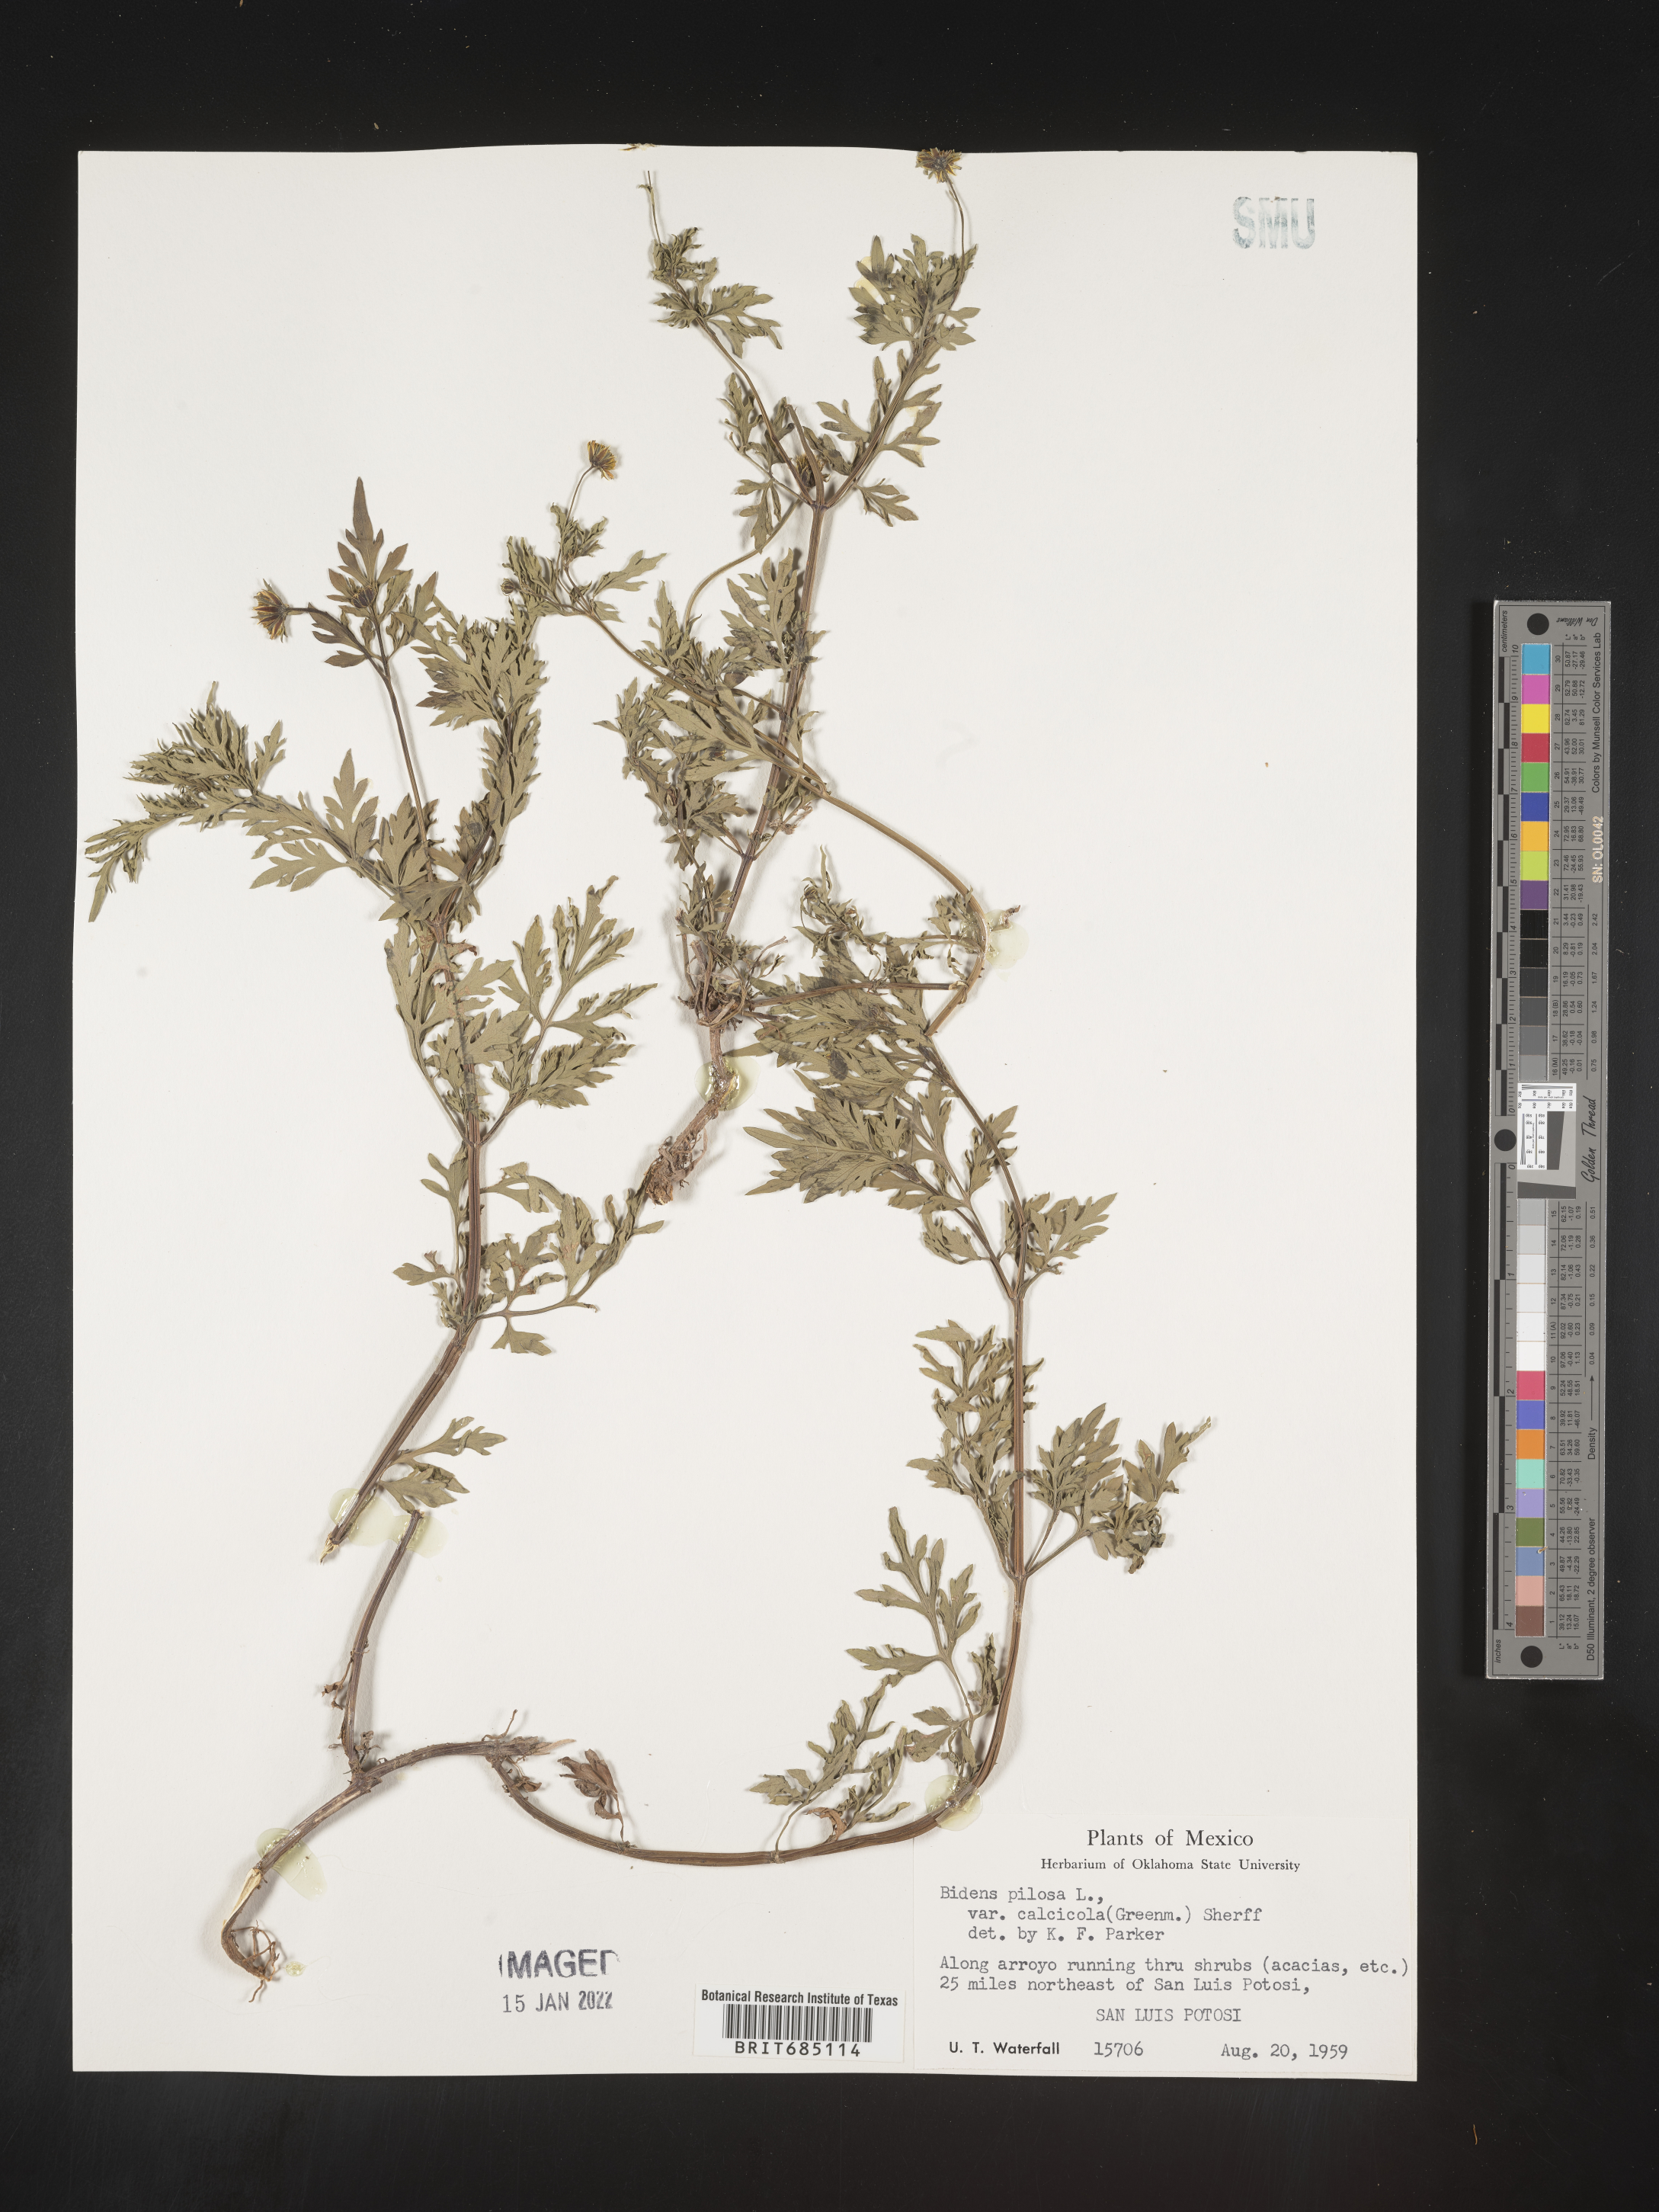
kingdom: Plantae
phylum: Tracheophyta
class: Magnoliopsida
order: Asterales
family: Asteraceae
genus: Bidens
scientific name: Bidens
